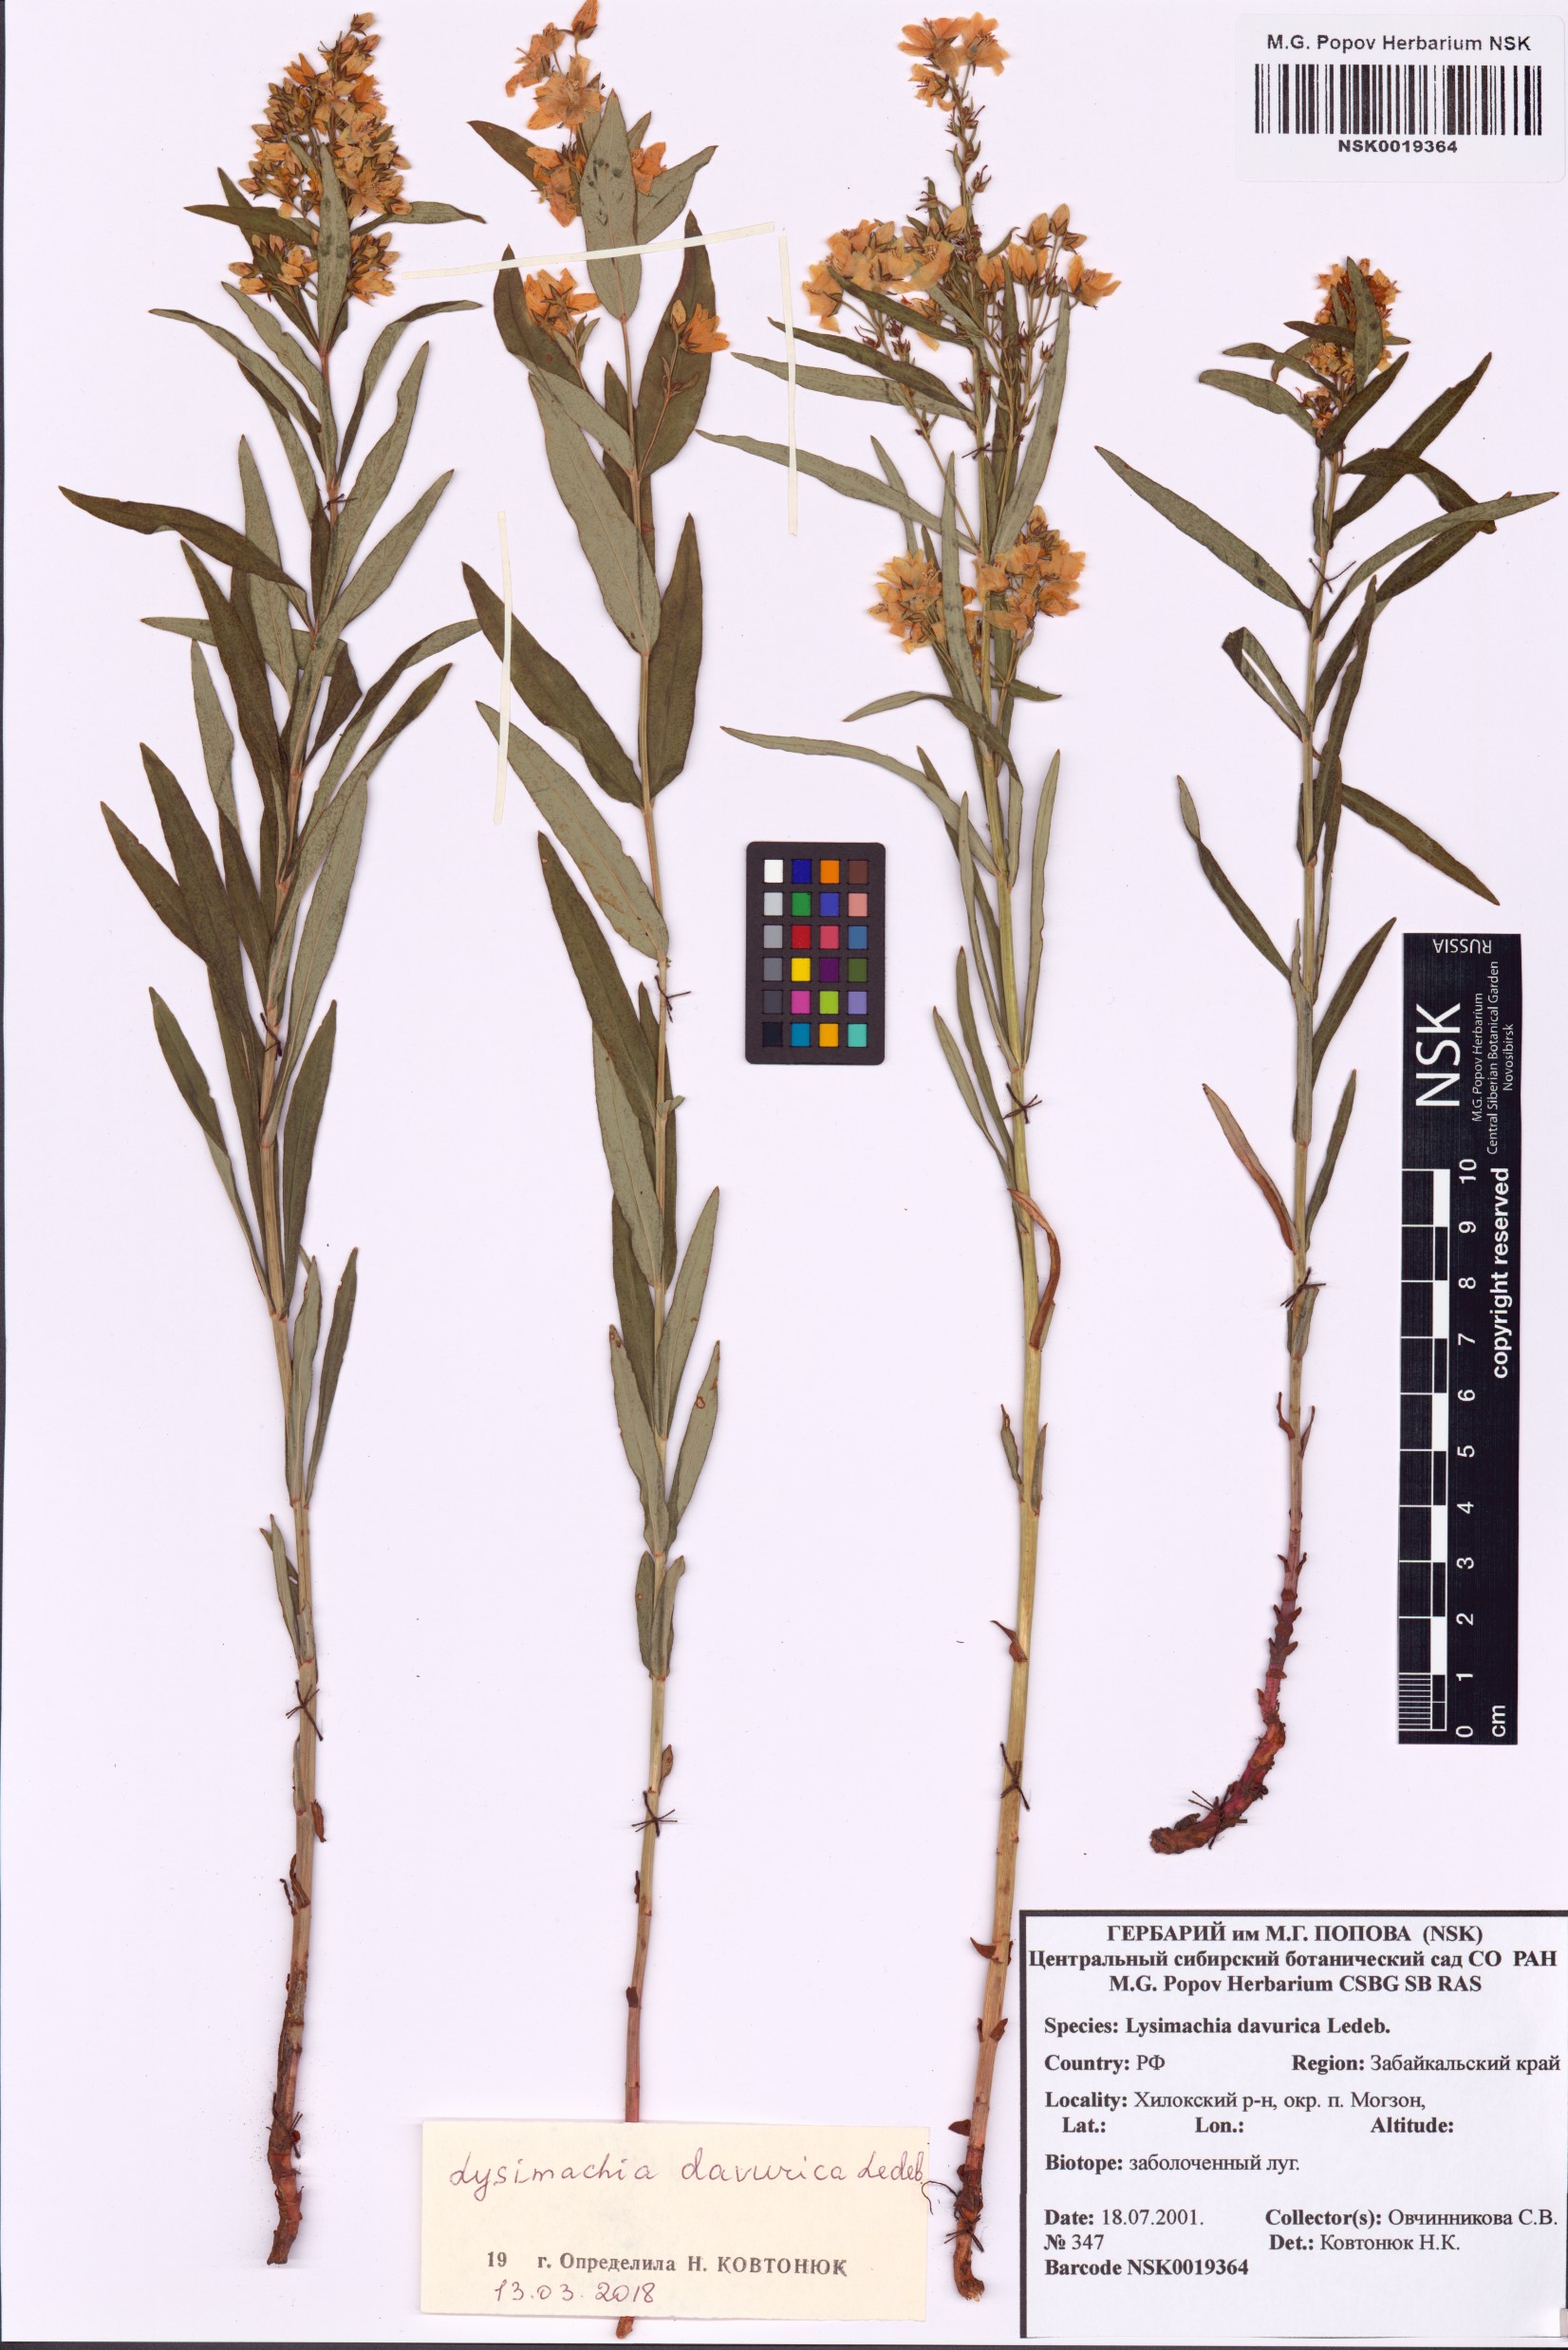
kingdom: Plantae
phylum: Tracheophyta
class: Magnoliopsida
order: Ericales
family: Primulaceae
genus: Lysimachia
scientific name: Lysimachia davurica
